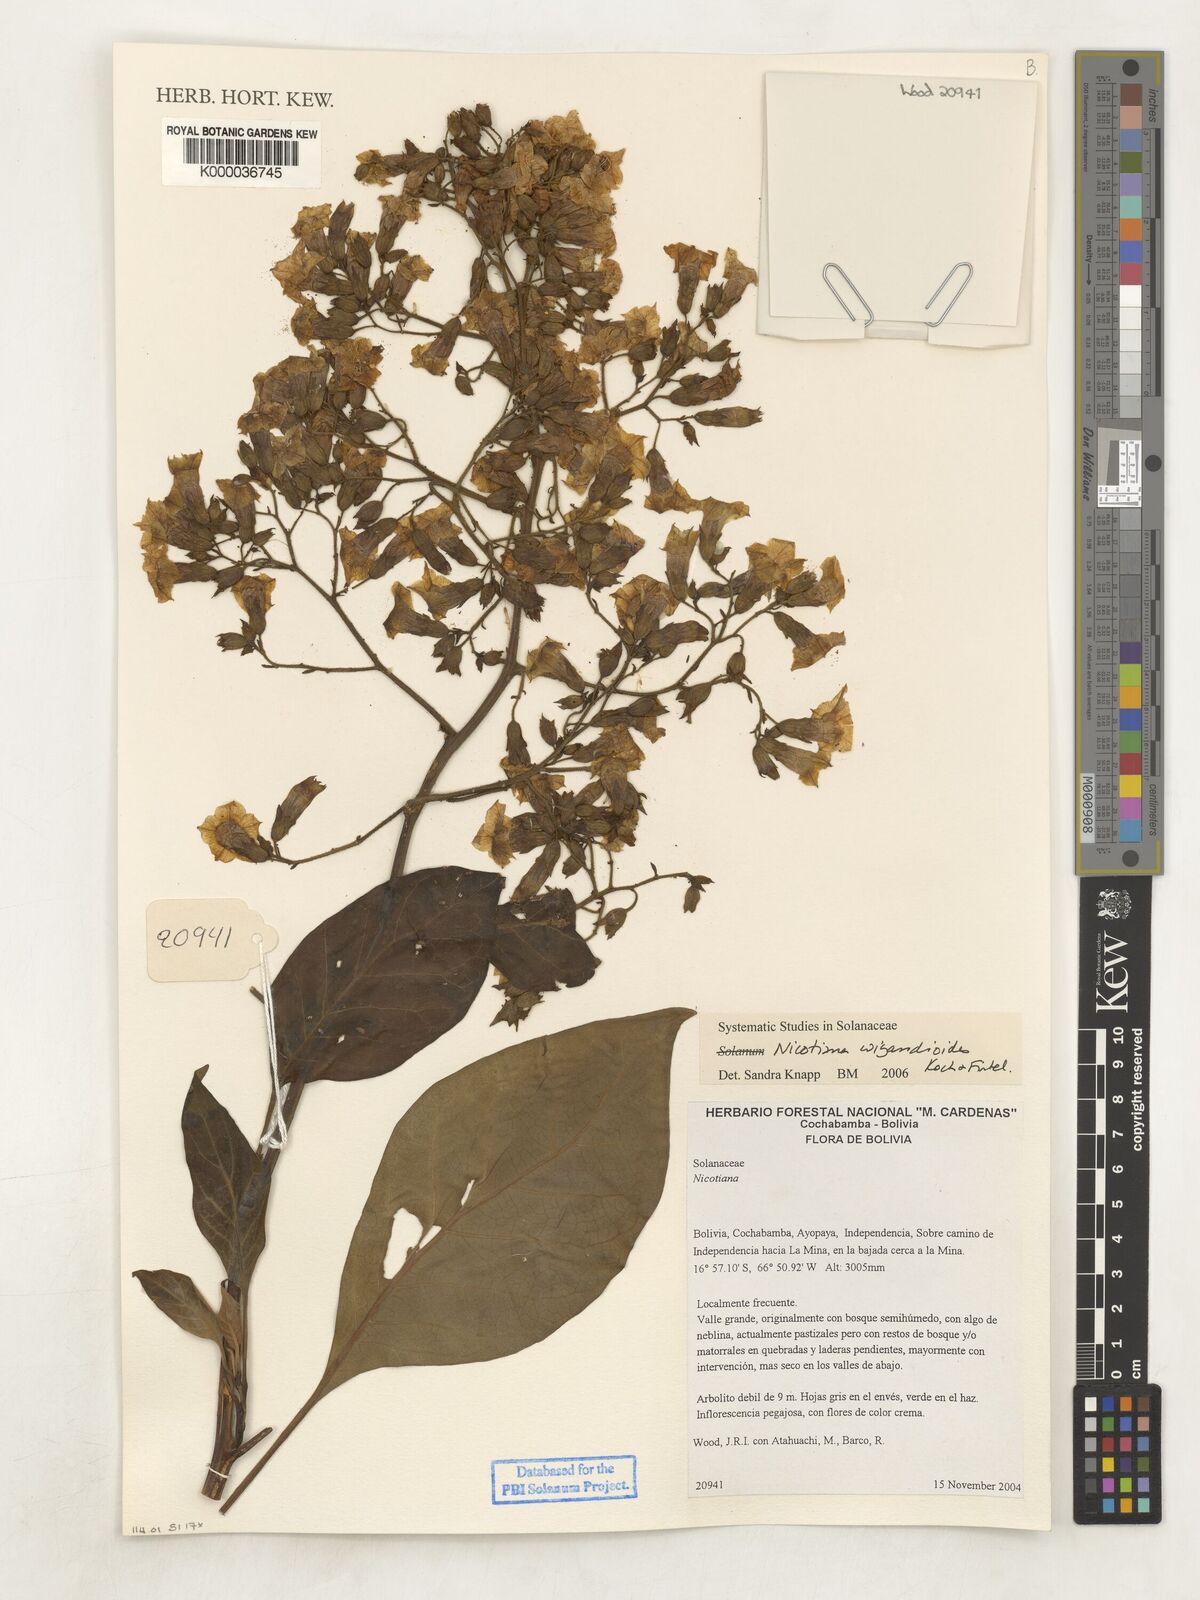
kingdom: Plantae
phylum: Tracheophyta
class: Magnoliopsida
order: Solanales
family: Solanaceae
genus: Nicotiana
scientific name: Nicotiana wigandioides
